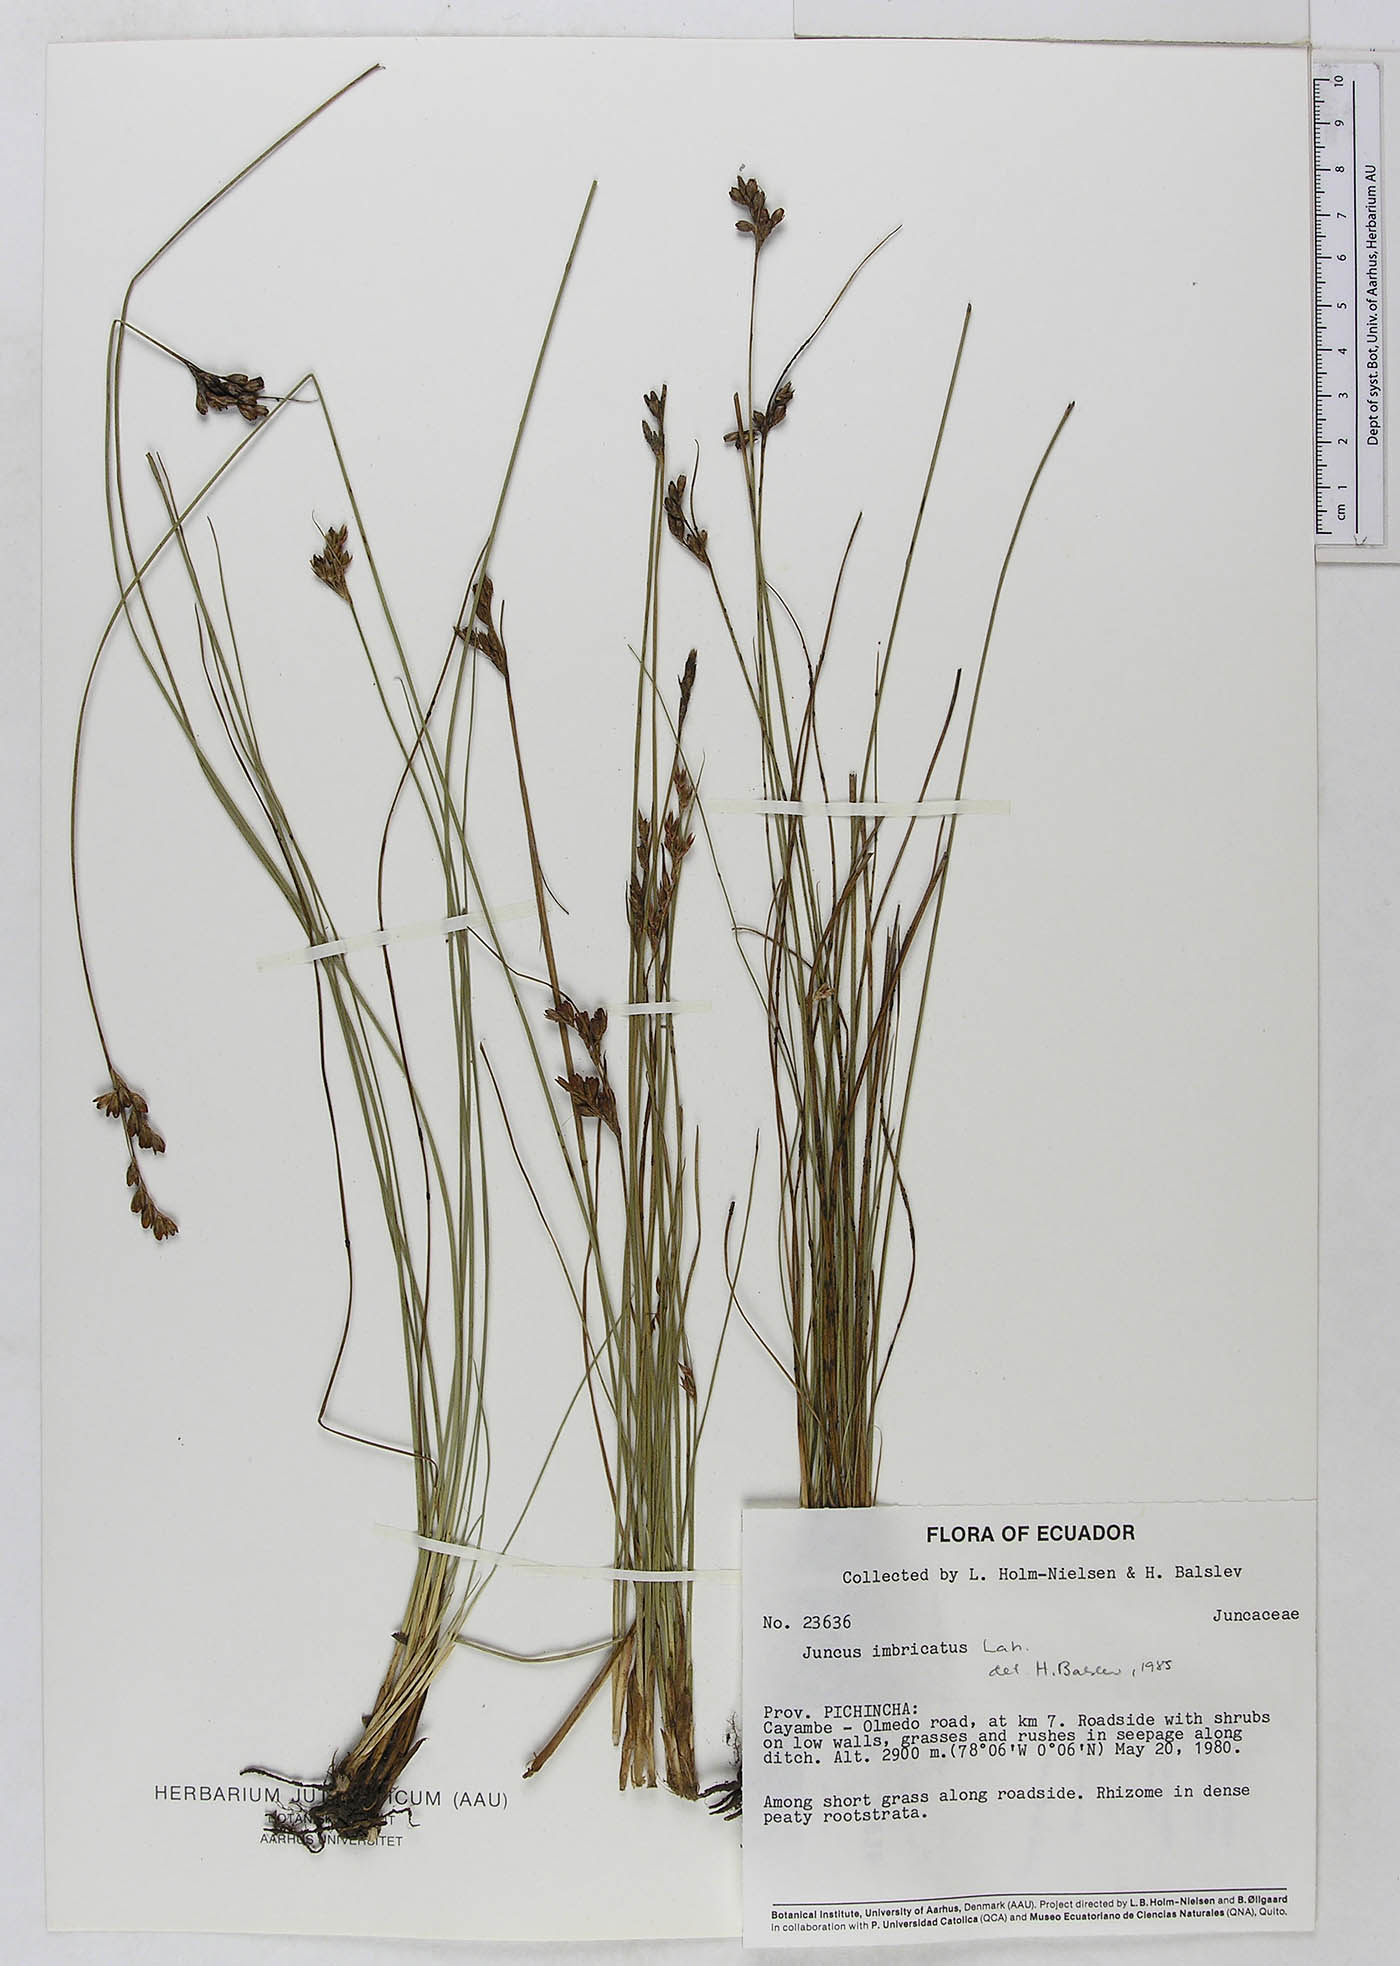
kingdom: Plantae
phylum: Tracheophyta
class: Liliopsida
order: Poales
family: Juncaceae
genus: Juncus
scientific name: Juncus imbricatus
